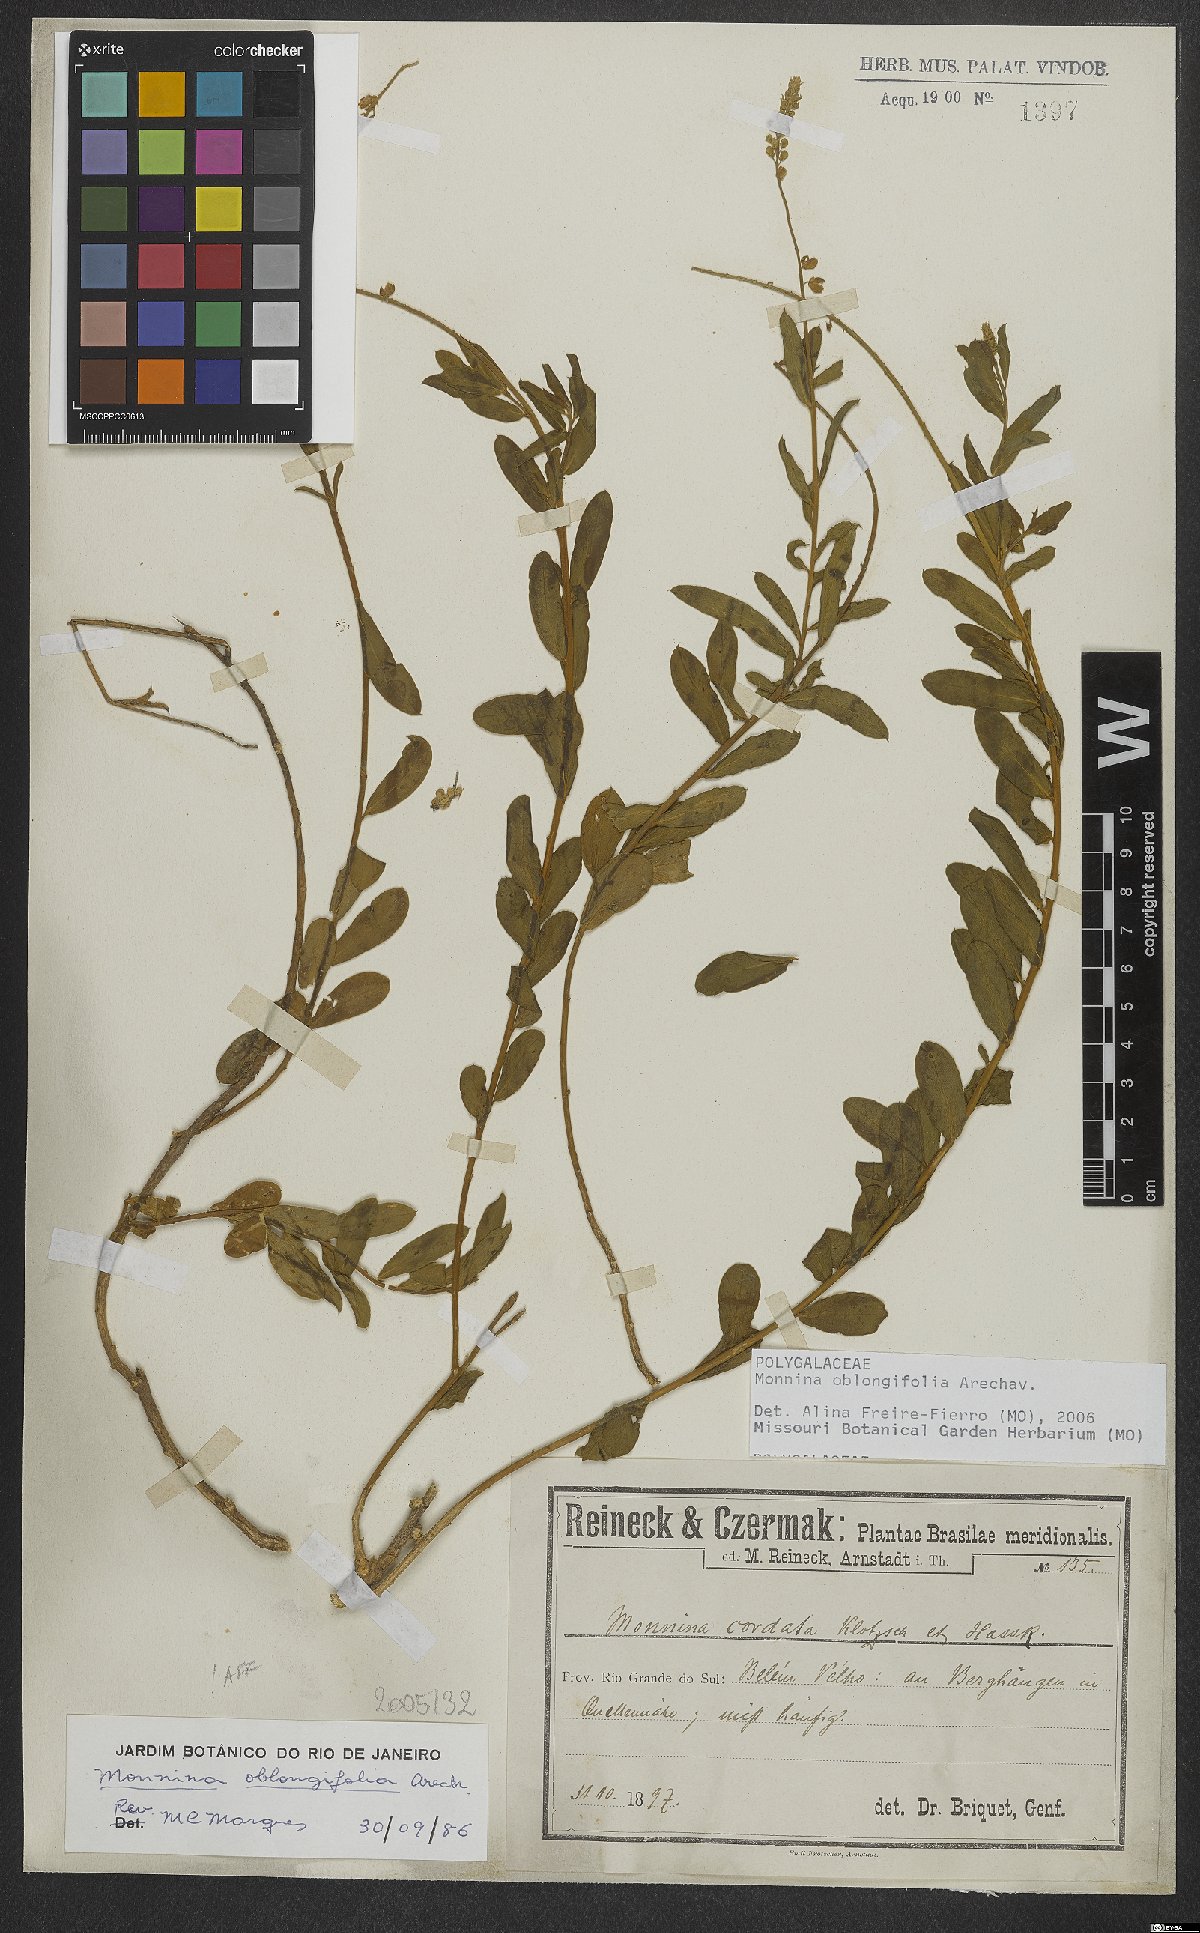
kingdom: Plantae
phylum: Tracheophyta
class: Magnoliopsida
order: Fabales
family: Polygalaceae
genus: Monnina
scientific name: Monnina oblongifolia
